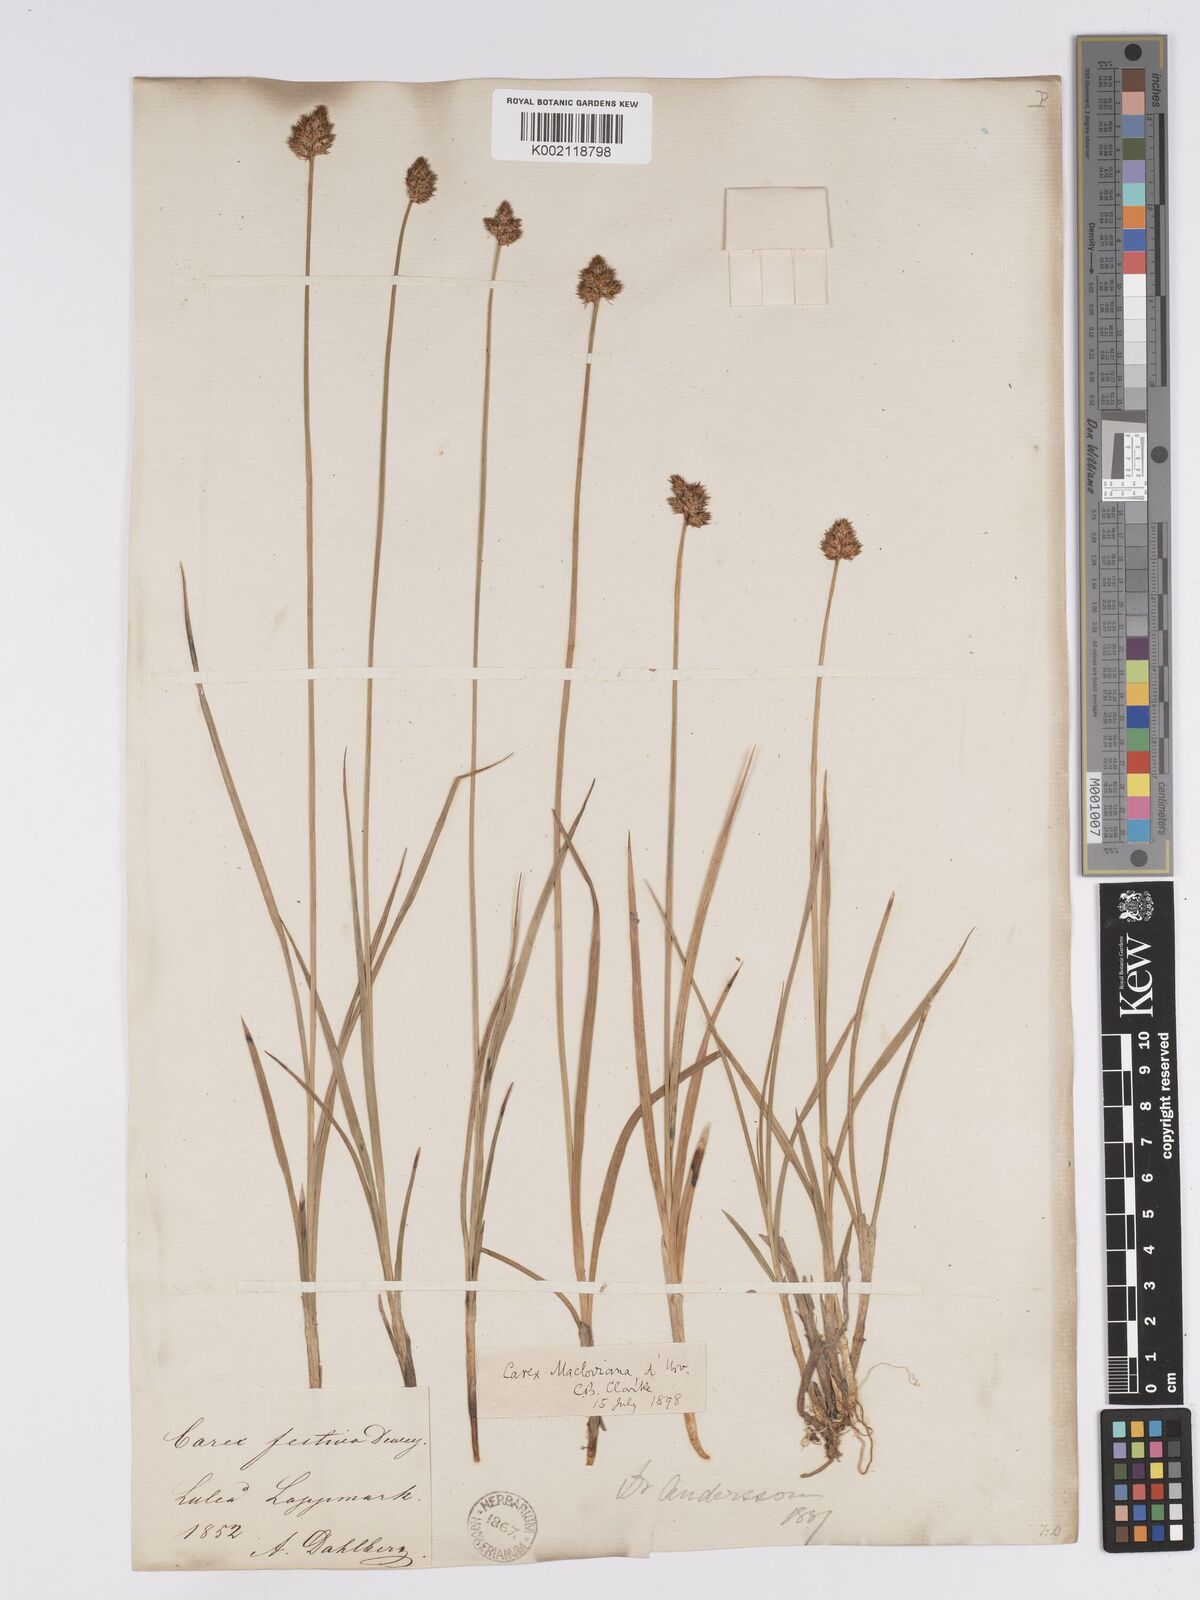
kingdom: Plantae
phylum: Tracheophyta
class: Liliopsida
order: Poales
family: Cyperaceae
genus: Carex
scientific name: Carex macloviana
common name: Falkland island sedge
